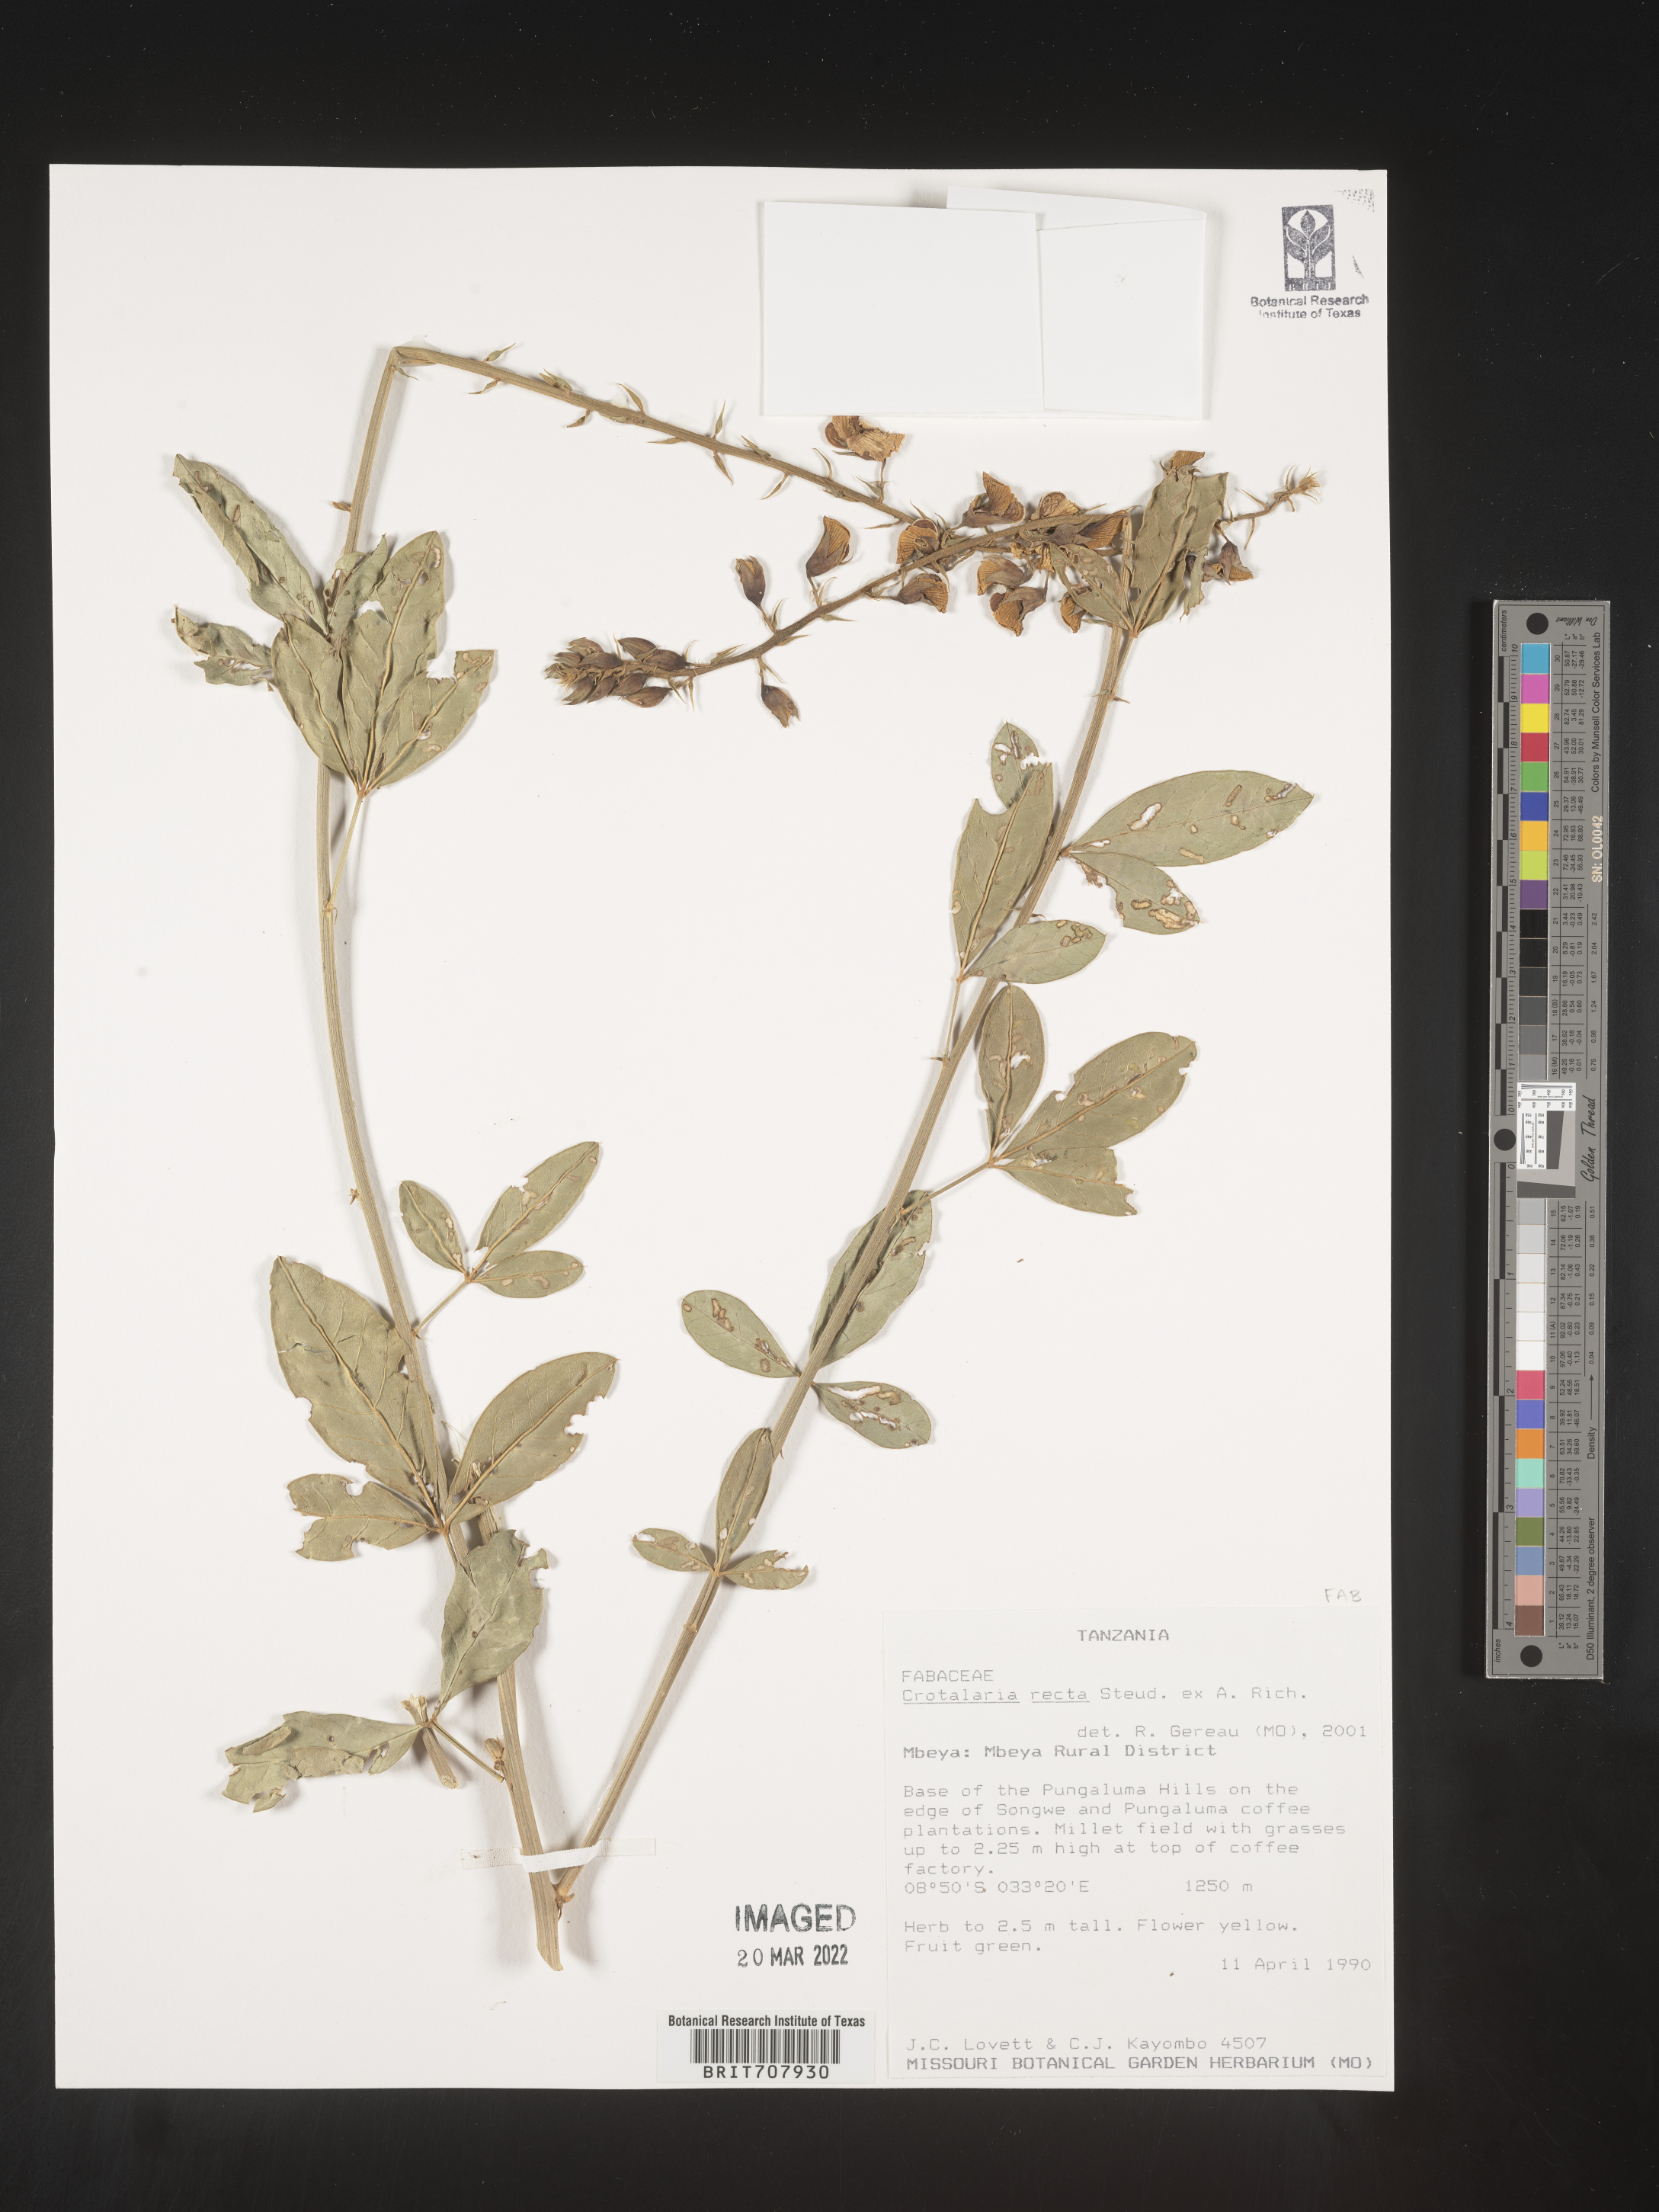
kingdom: Plantae
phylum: Tracheophyta
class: Magnoliopsida
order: Fabales
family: Fabaceae
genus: Crotalaria
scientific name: Crotalaria
